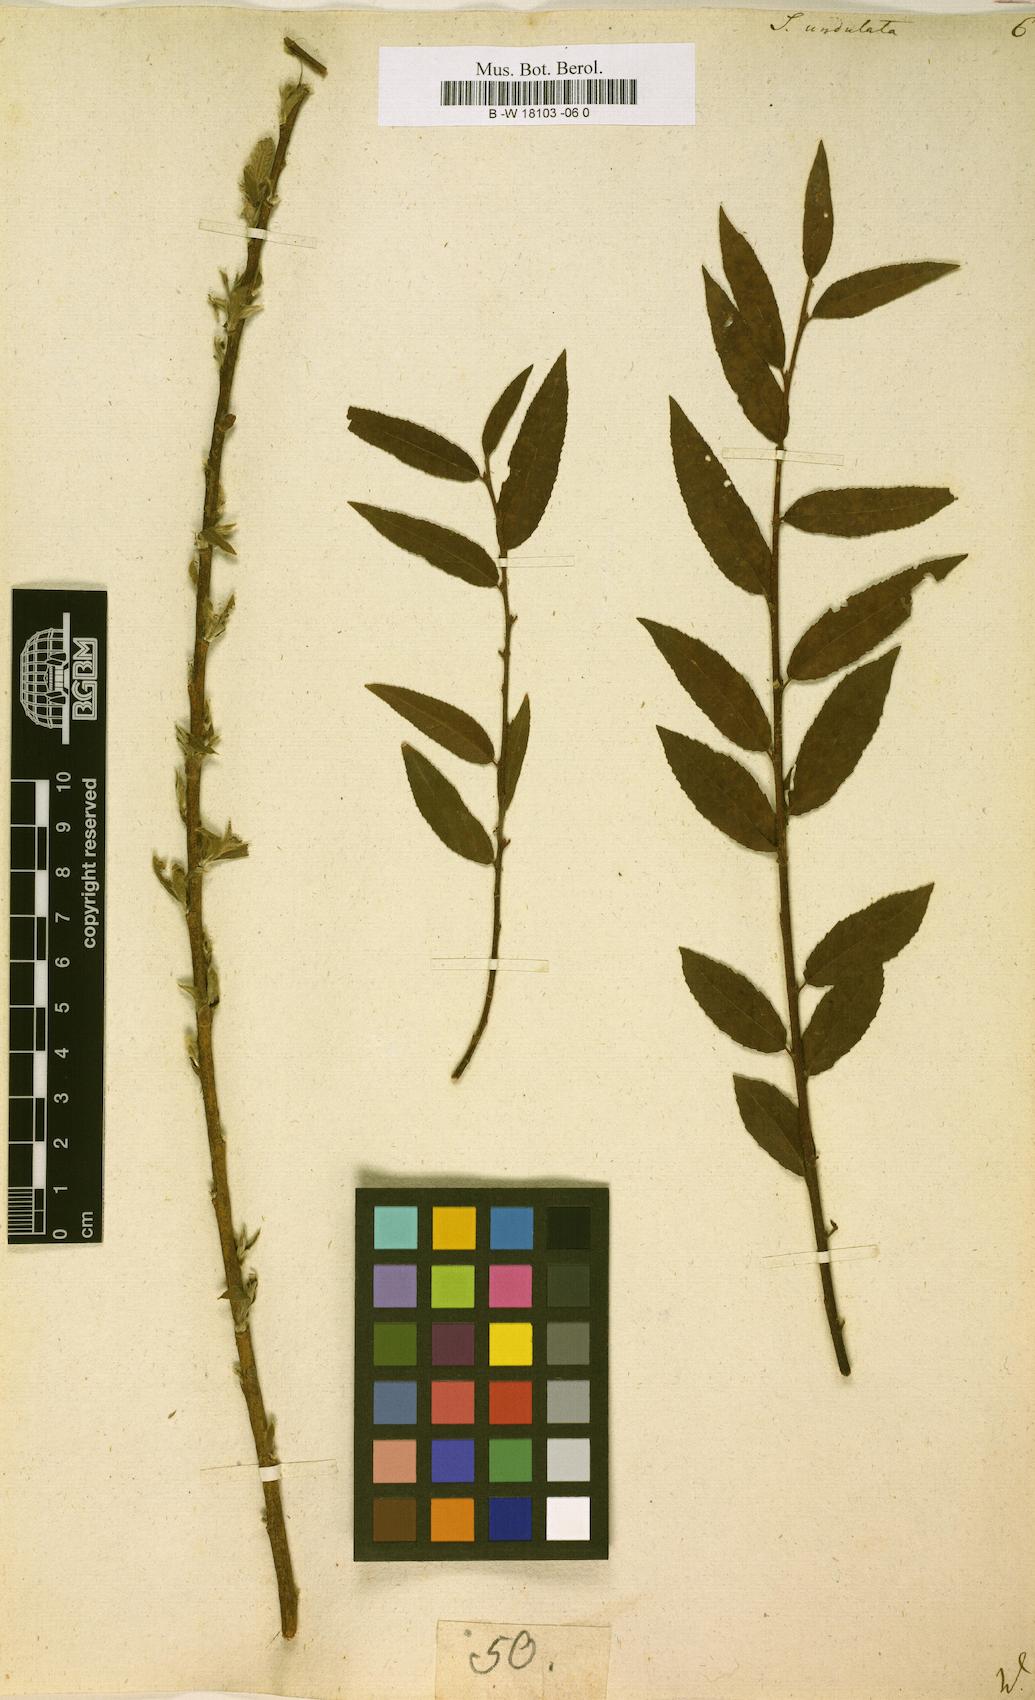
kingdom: Plantae
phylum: Tracheophyta
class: Magnoliopsida
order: Malpighiales
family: Salicaceae
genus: Salix
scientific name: Salix undulata
